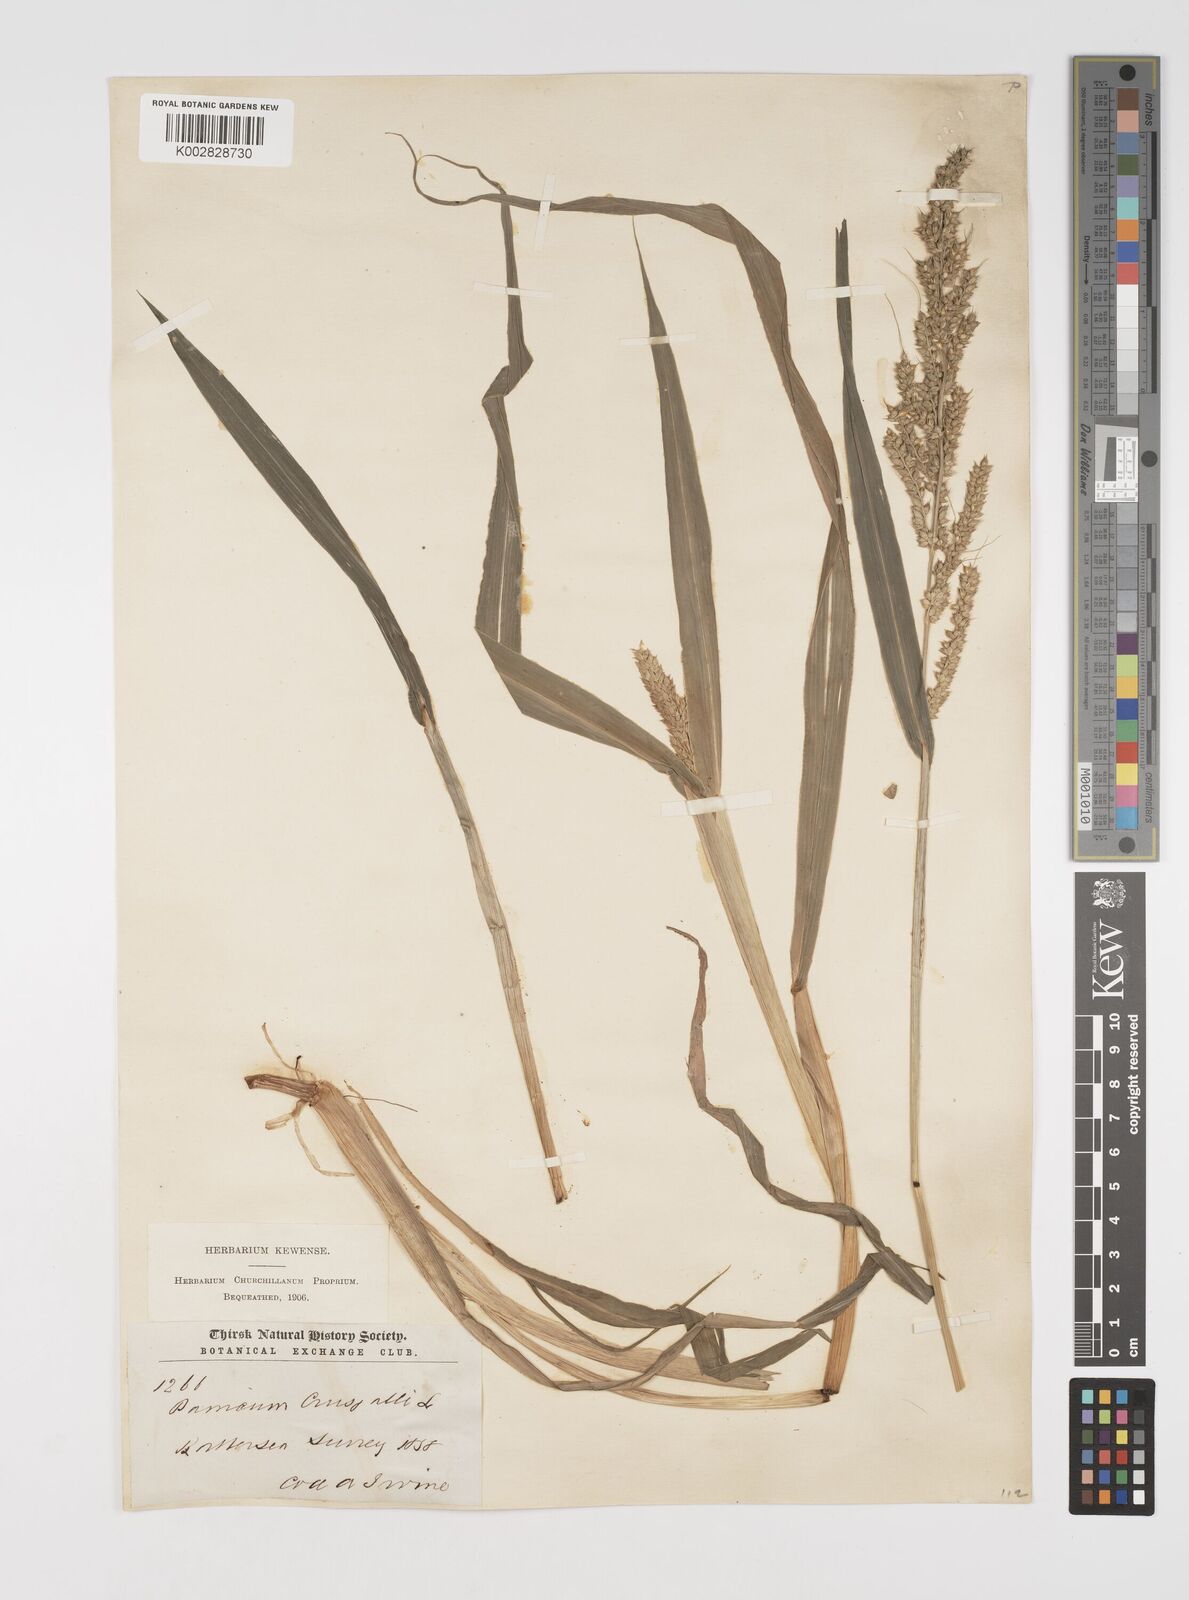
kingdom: Plantae
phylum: Tracheophyta
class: Liliopsida
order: Poales
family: Poaceae
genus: Echinochloa
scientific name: Echinochloa crus-galli
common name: Cockspur
